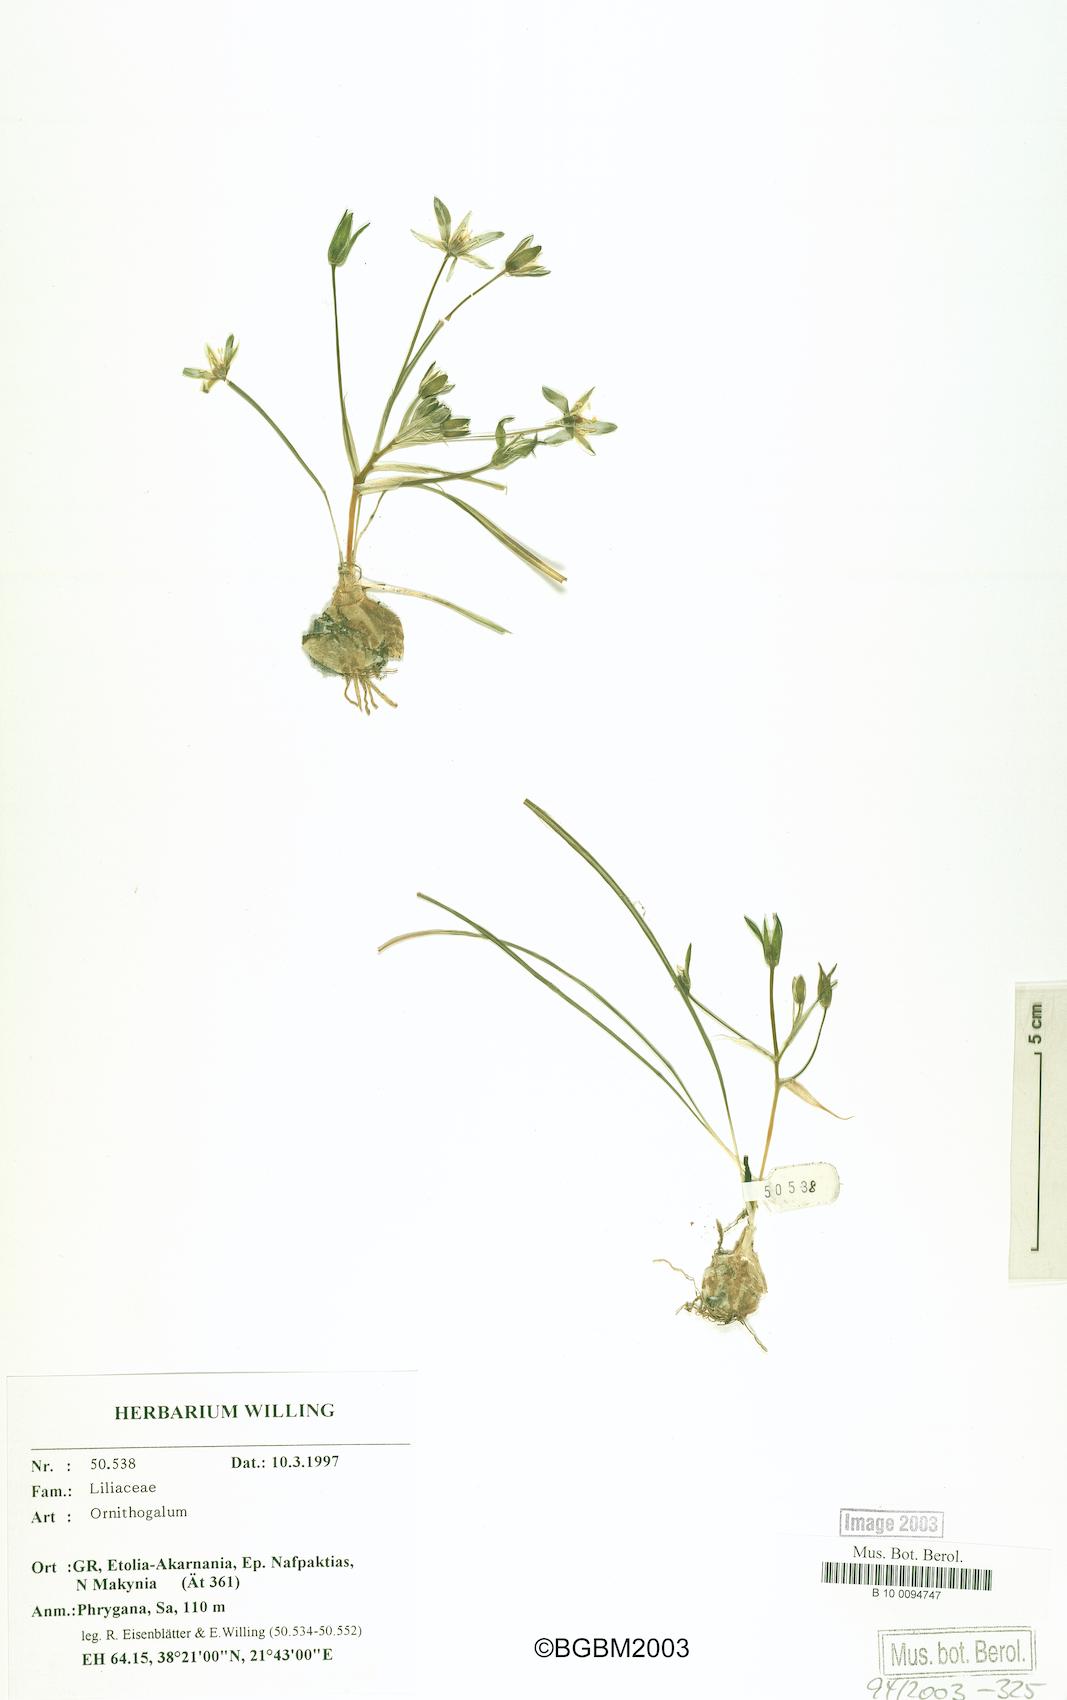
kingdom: Plantae
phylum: Tracheophyta
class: Liliopsida
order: Asparagales
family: Asparagaceae
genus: Ornithogalum
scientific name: Ornithogalum
